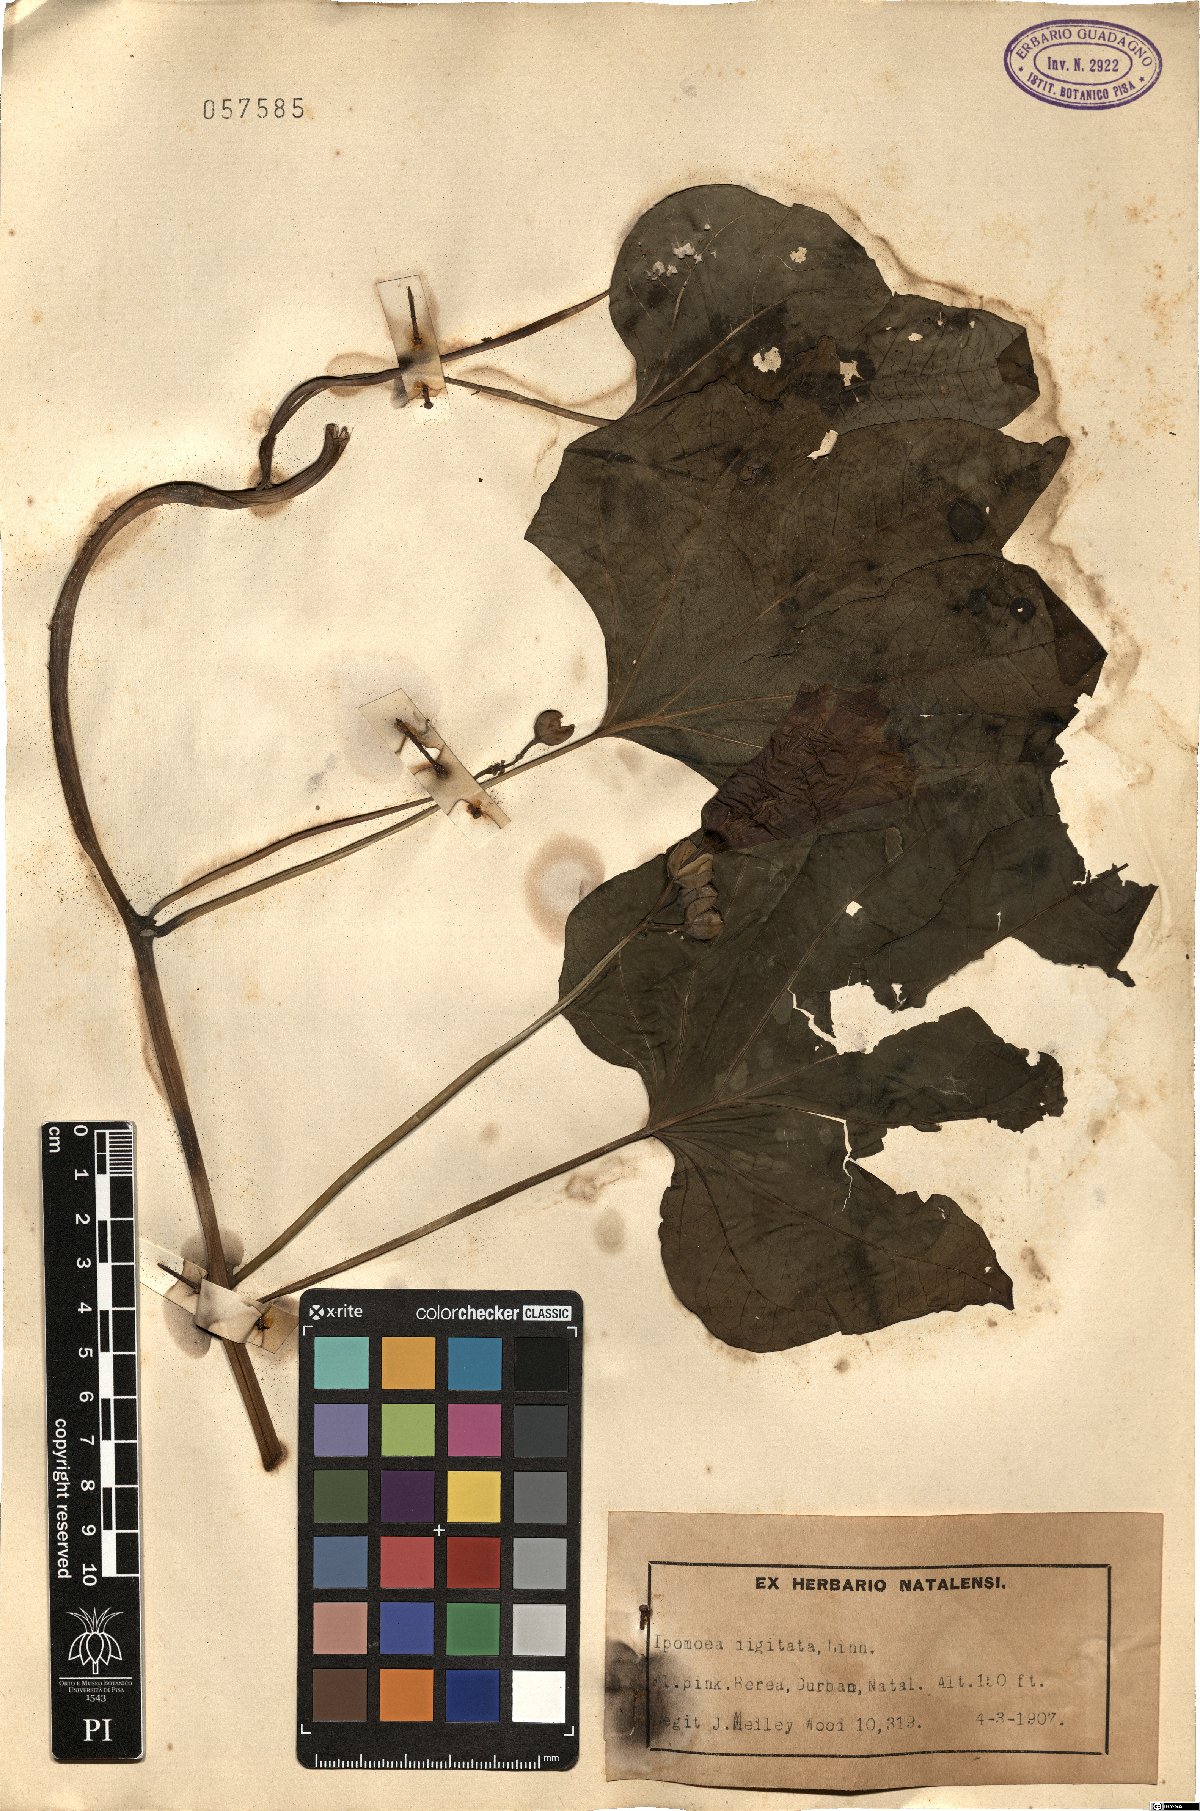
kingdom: Plantae
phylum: Tracheophyta
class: Magnoliopsida
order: Solanales
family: Convolvulaceae
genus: Ipomoea
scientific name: Ipomoea digitata
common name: Finger-leaf morning-glory
